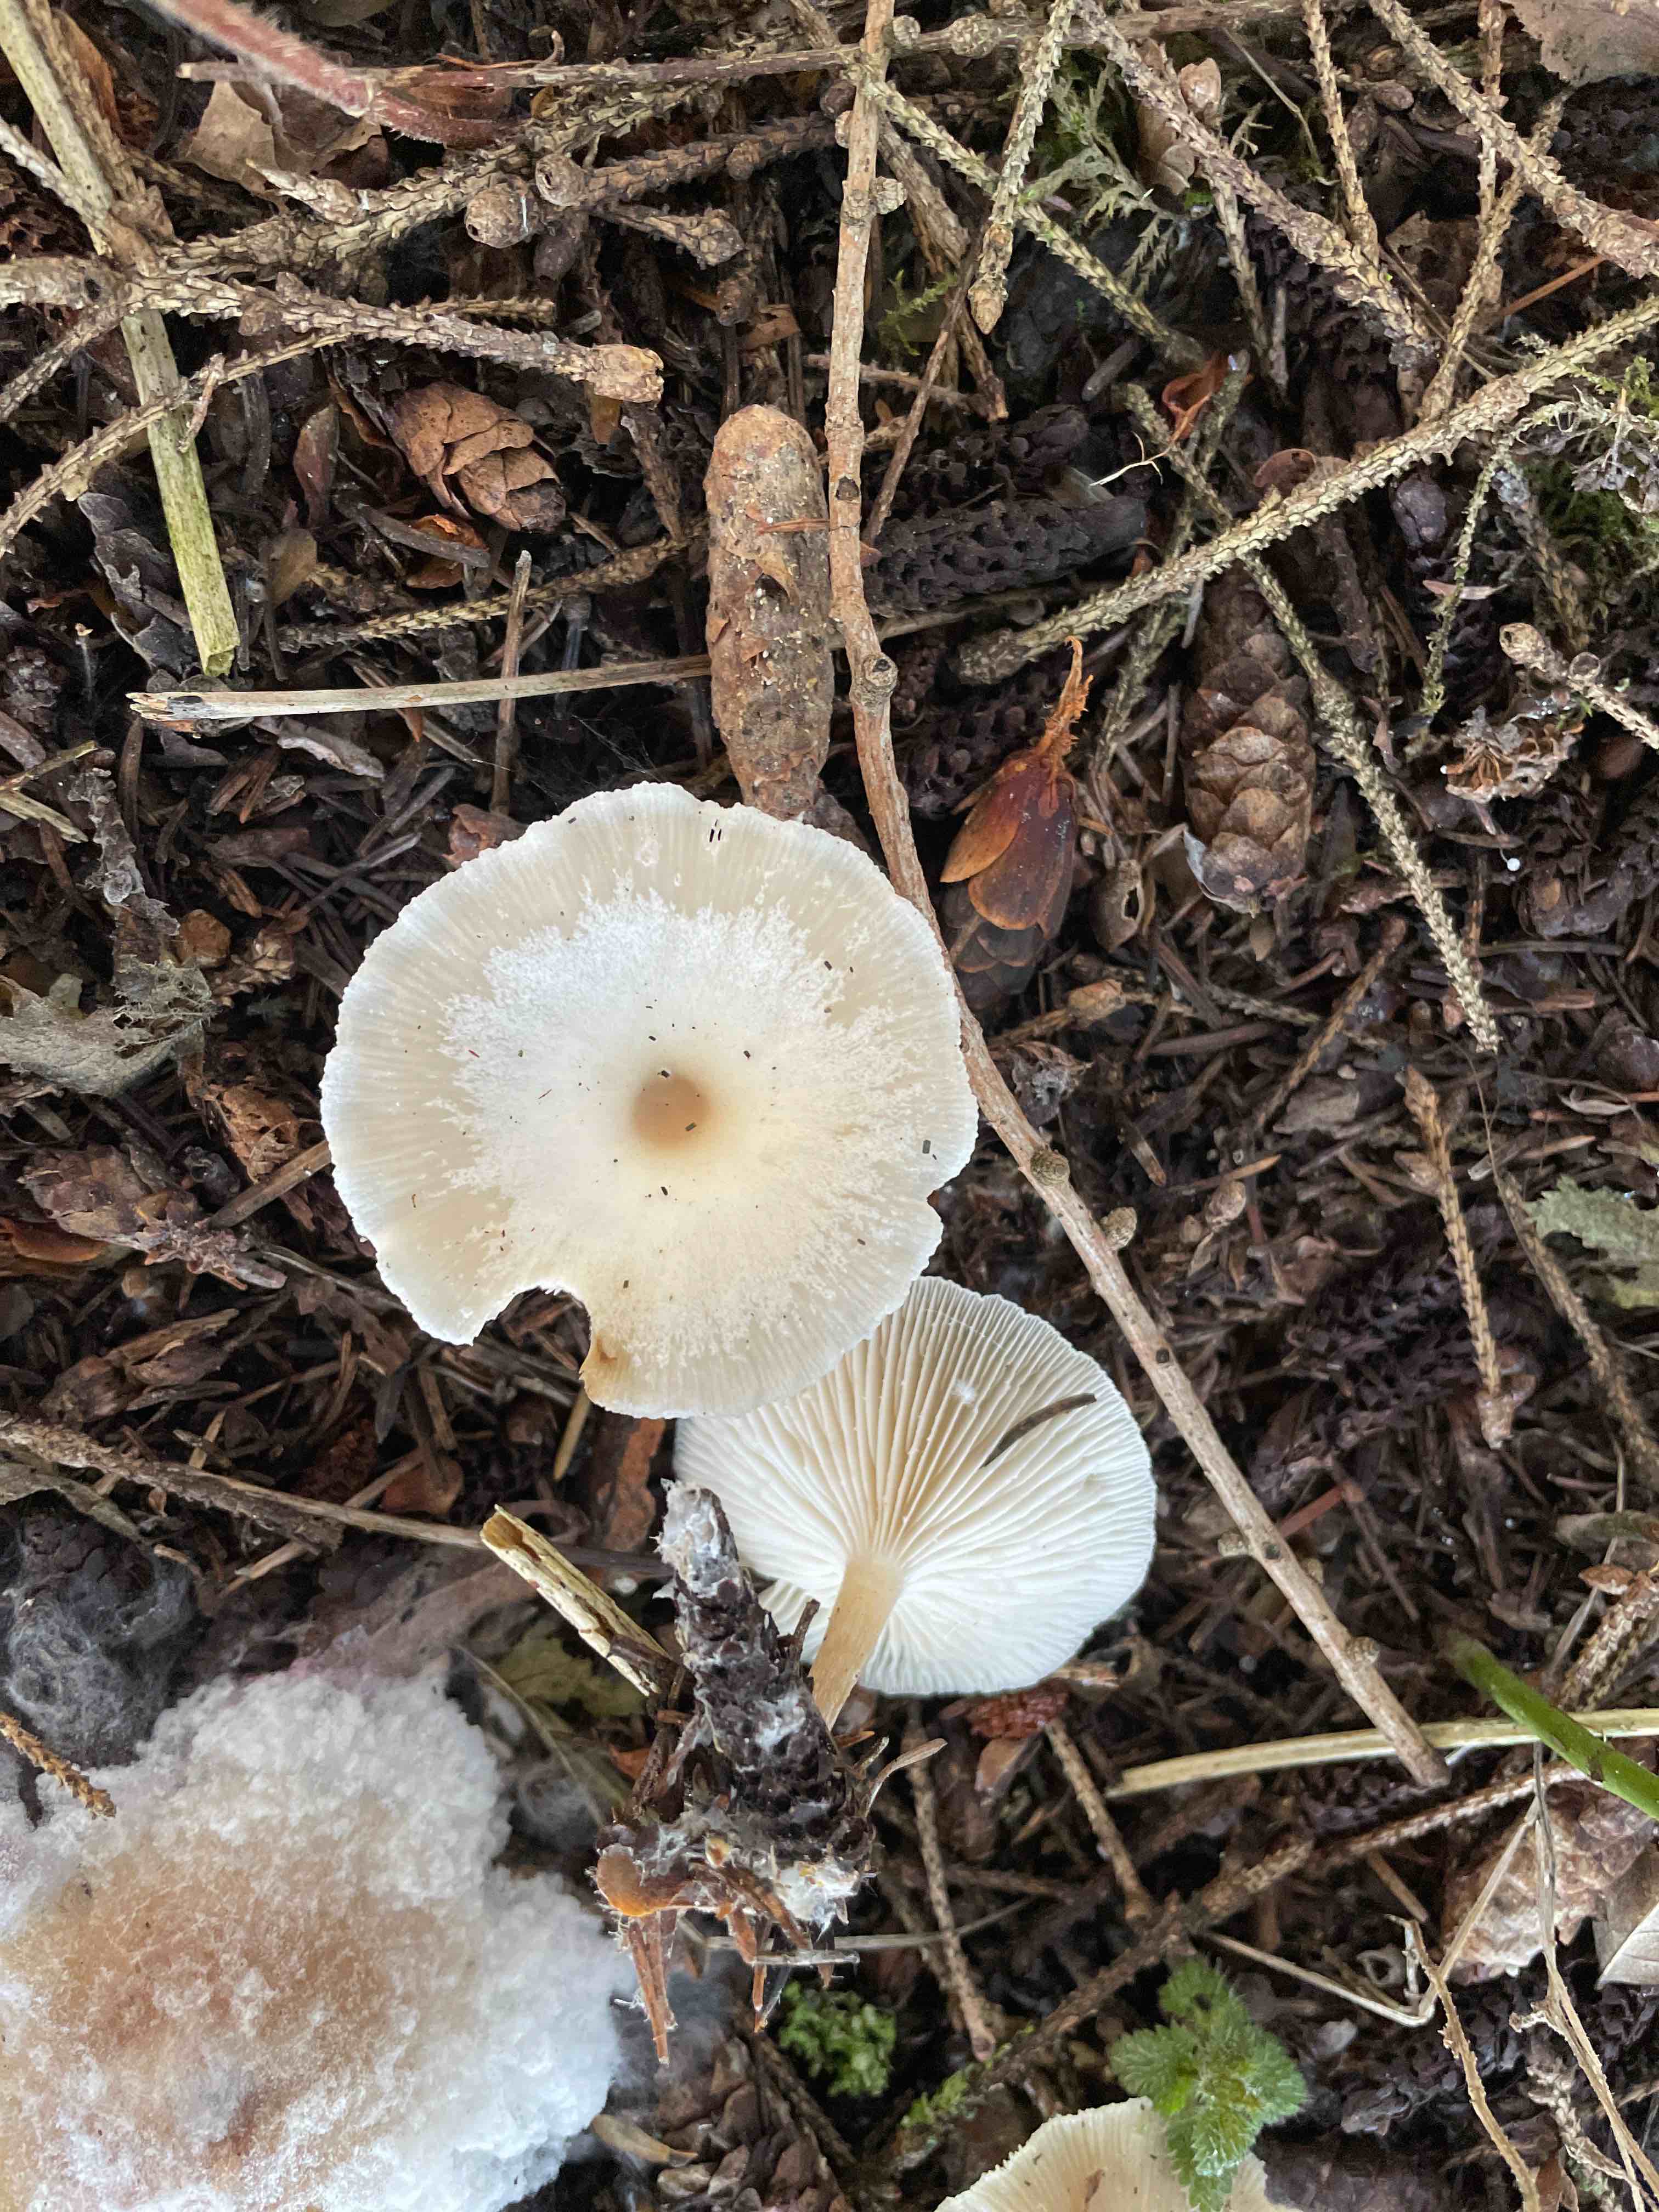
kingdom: Fungi
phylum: Basidiomycota
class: Agaricomycetes
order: Agaricales
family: Tricholomataceae
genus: Clitocybe
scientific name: Clitocybe metachroa
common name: grå tragthat
